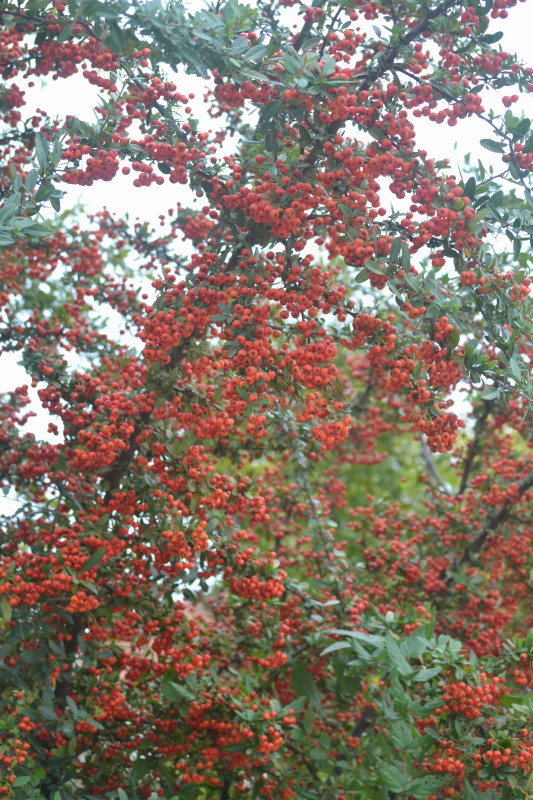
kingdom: Plantae
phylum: Tracheophyta
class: Magnoliopsida
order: Rosales
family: Rosaceae
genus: Pyracantha
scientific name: Pyracantha coccinea
